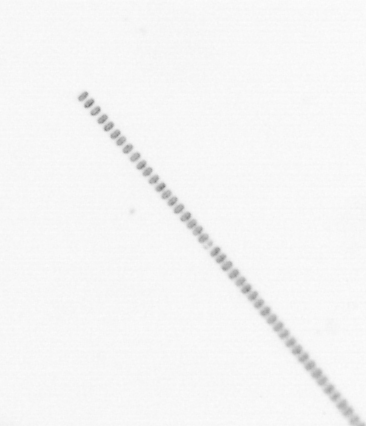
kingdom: Chromista
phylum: Ochrophyta
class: Bacillariophyceae
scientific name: Bacillariophyceae
